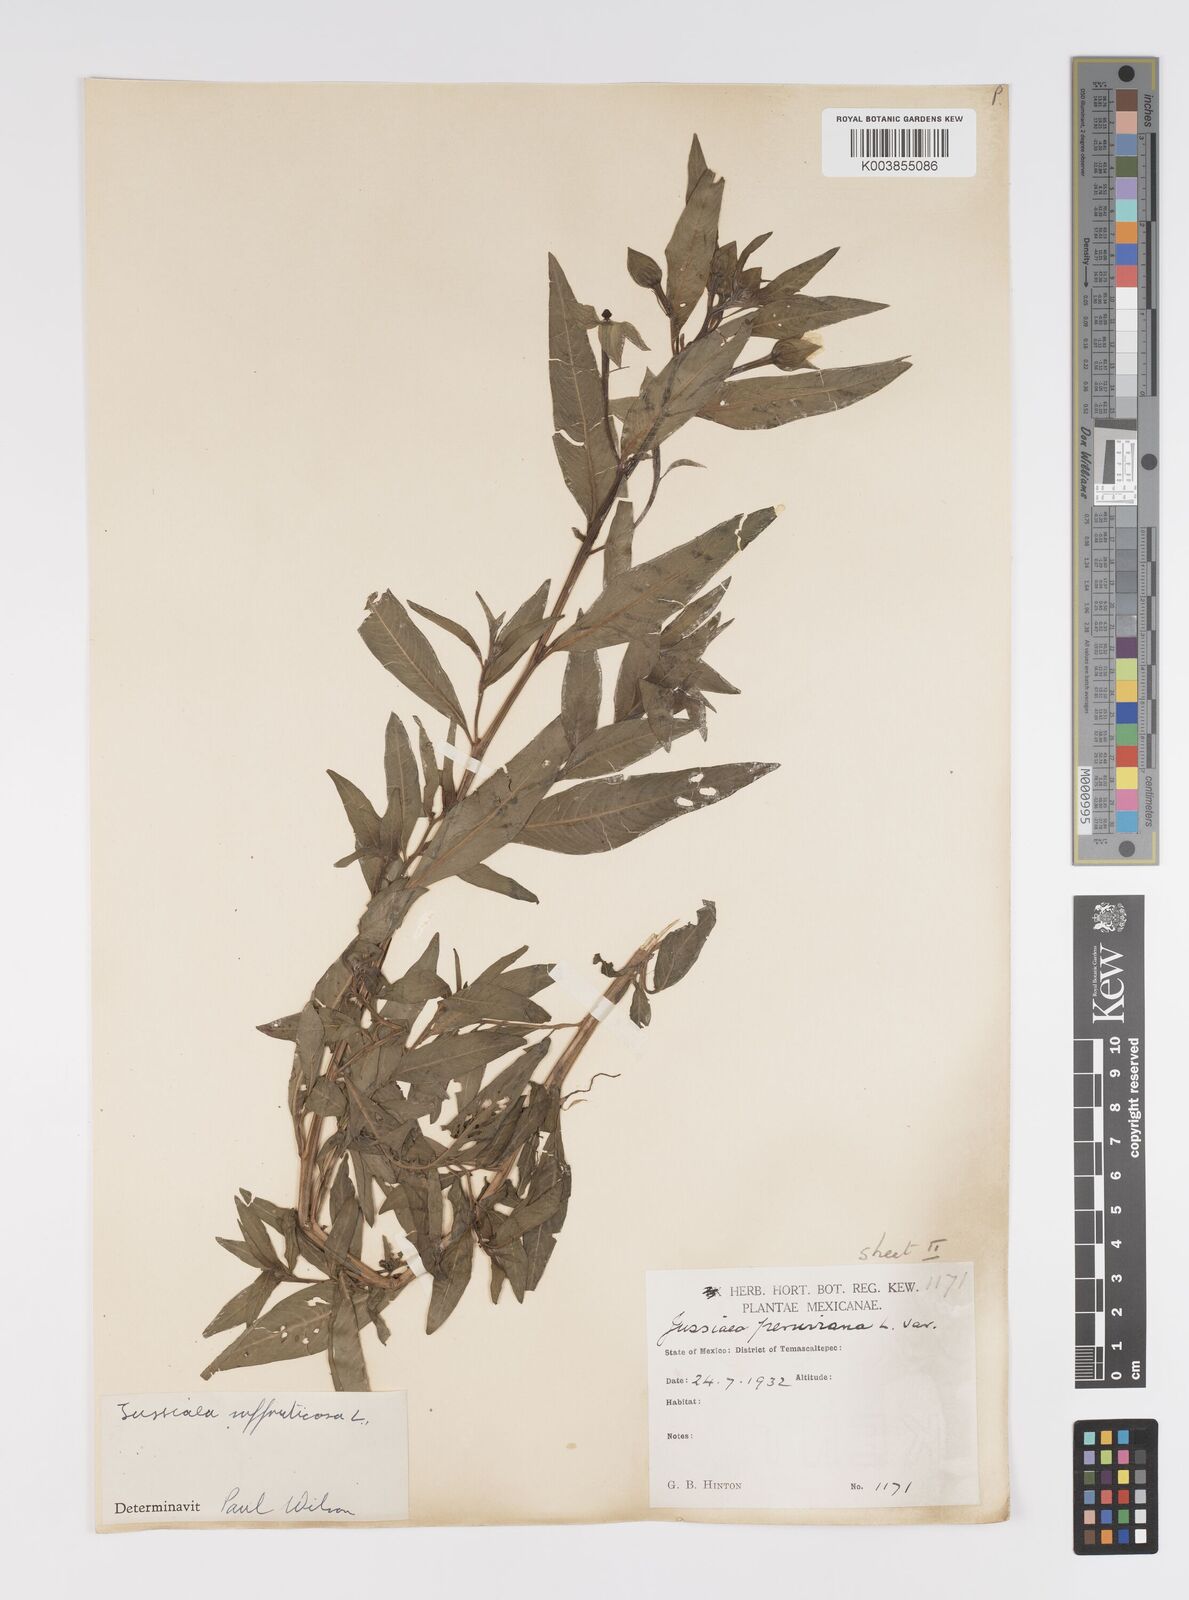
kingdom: Plantae
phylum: Tracheophyta
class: Magnoliopsida
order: Myrtales
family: Onagraceae
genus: Ludwigia
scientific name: Ludwigia octovalvis
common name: Water-primrose
